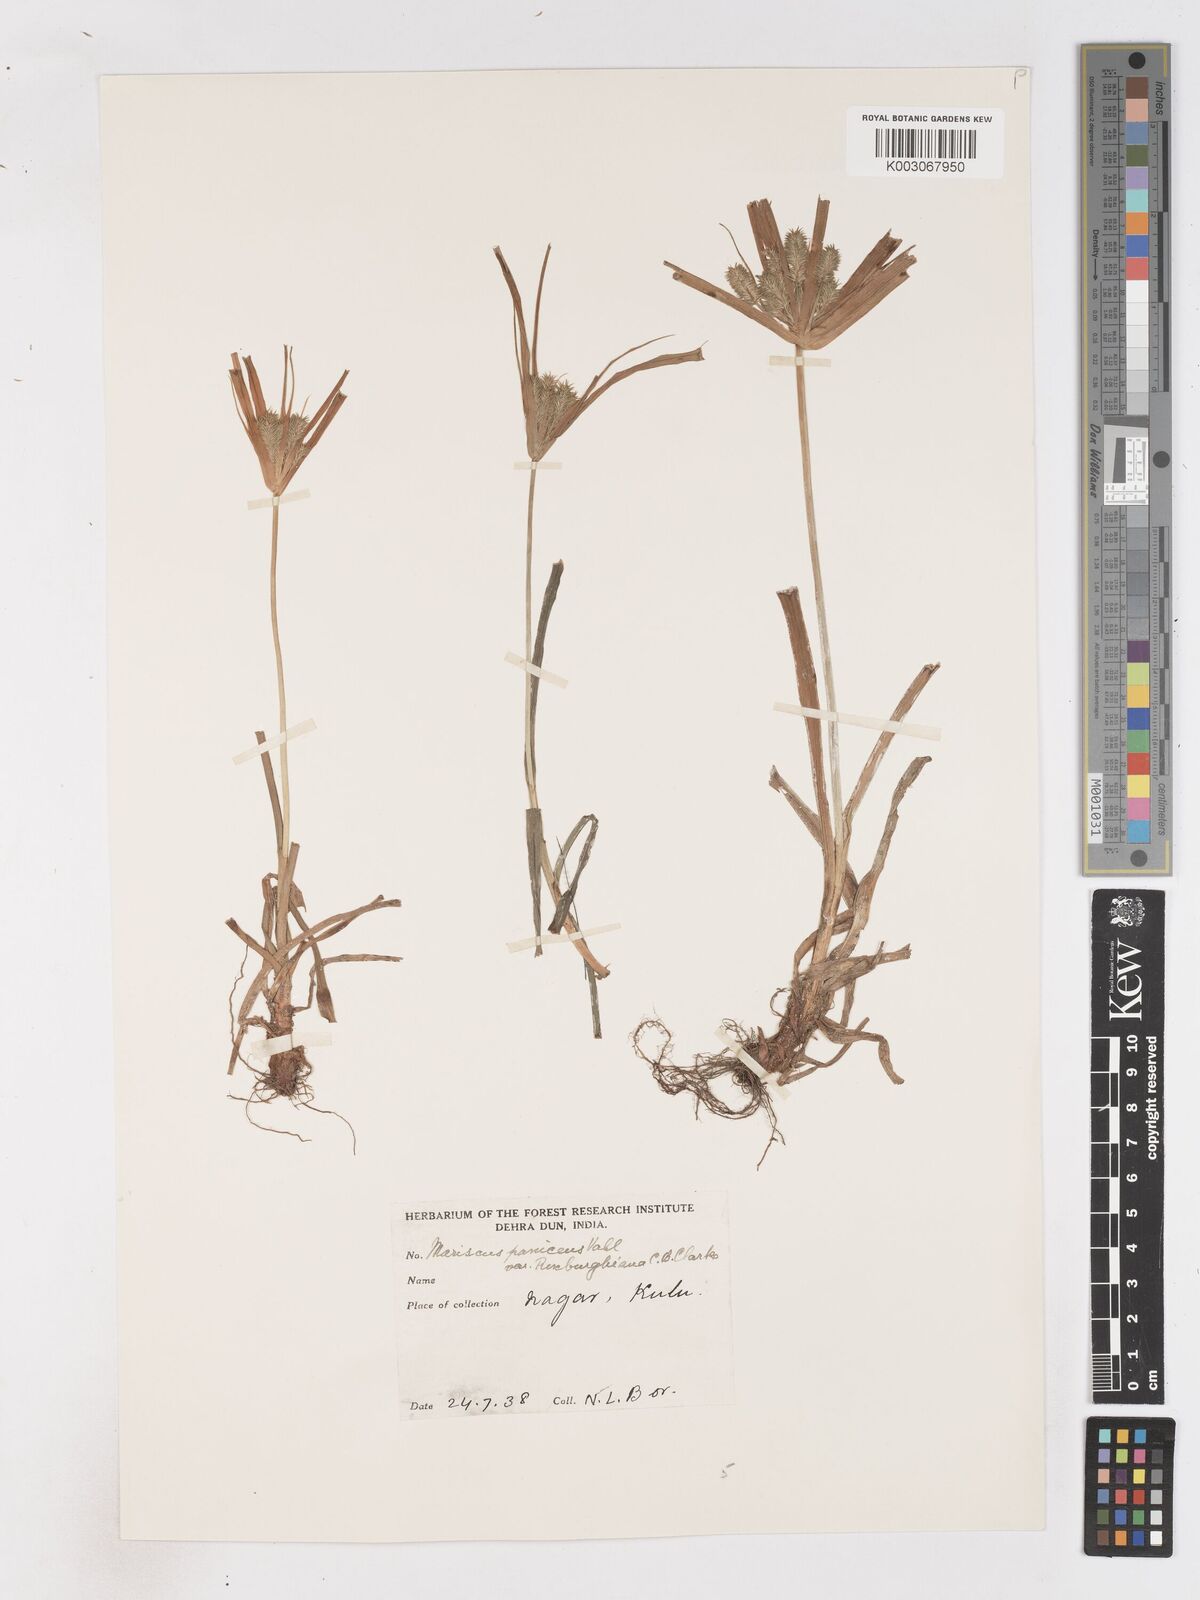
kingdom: Plantae
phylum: Tracheophyta
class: Liliopsida
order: Poales
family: Cyperaceae
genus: Cyperus
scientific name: Cyperus paniceus
